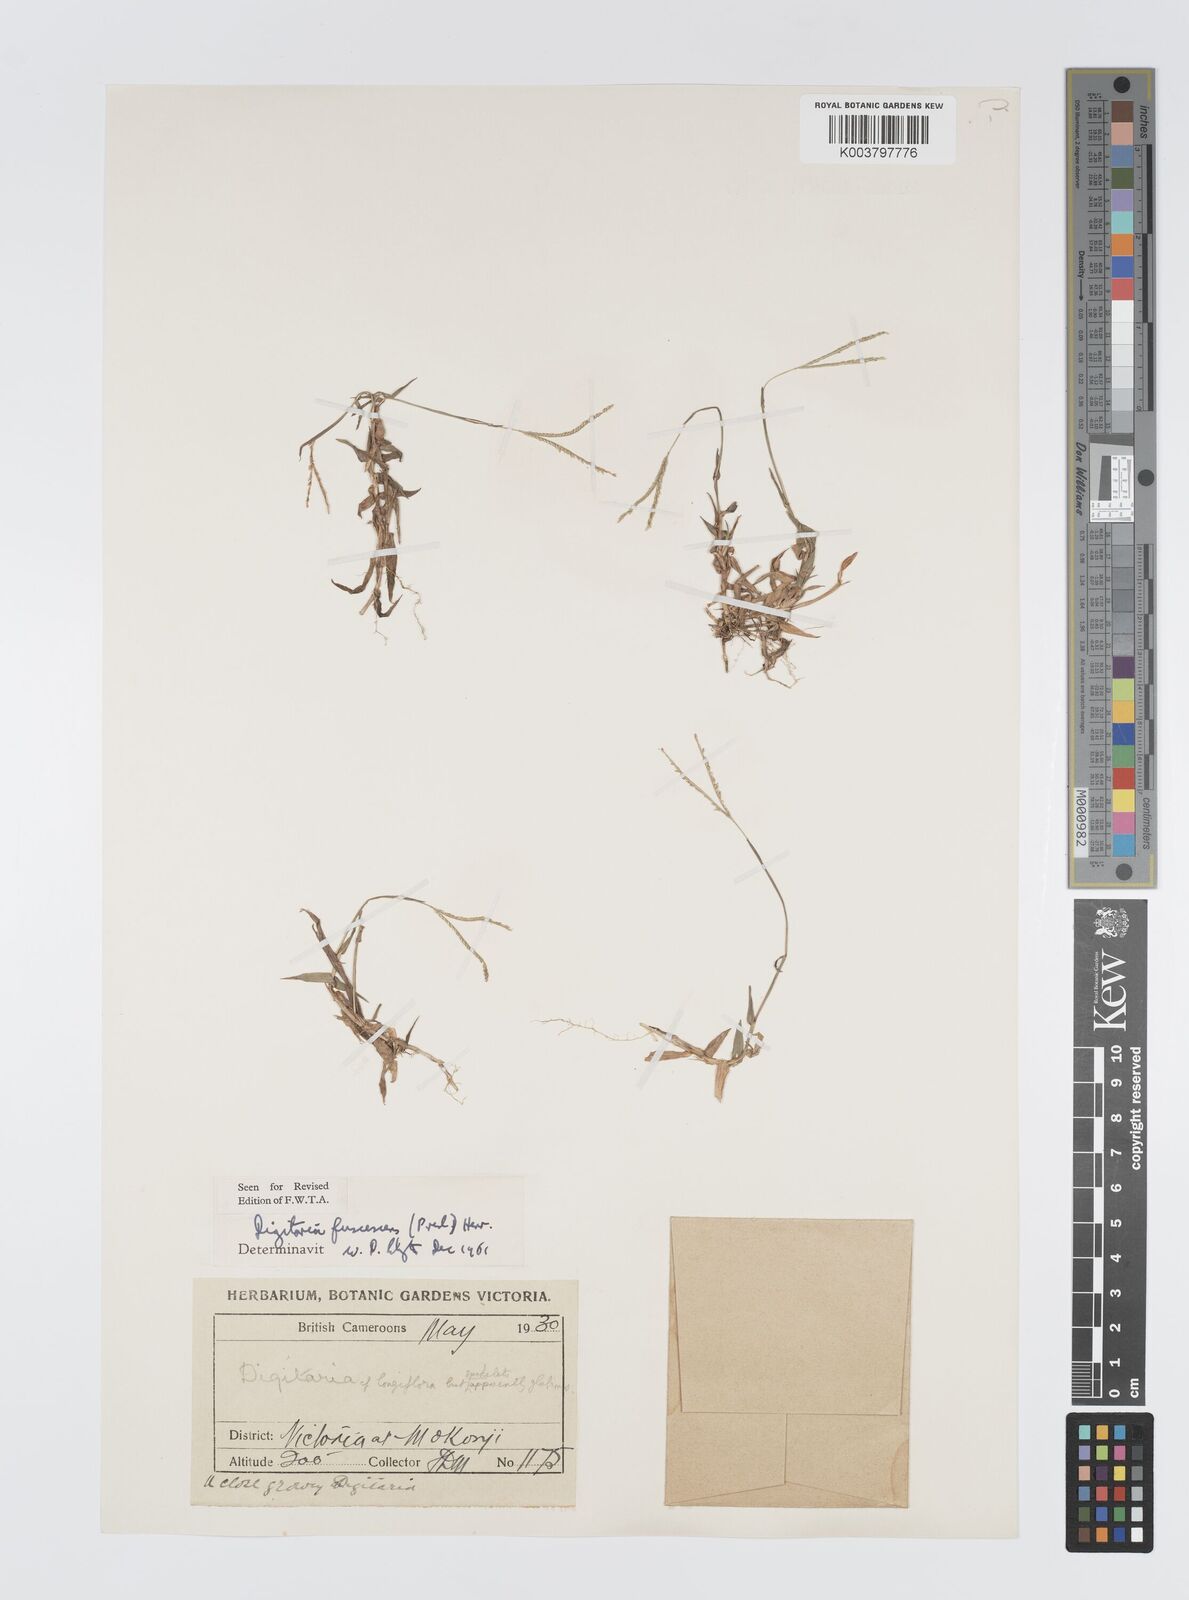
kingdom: Plantae
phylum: Tracheophyta
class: Liliopsida
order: Poales
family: Poaceae
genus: Digitaria
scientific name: Digitaria fuscescens
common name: Yellow crabgrass
